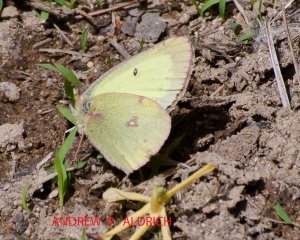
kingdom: Animalia
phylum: Arthropoda
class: Insecta
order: Lepidoptera
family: Pieridae
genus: Colias
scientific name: Colias philodice
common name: Clouded Sulphur
